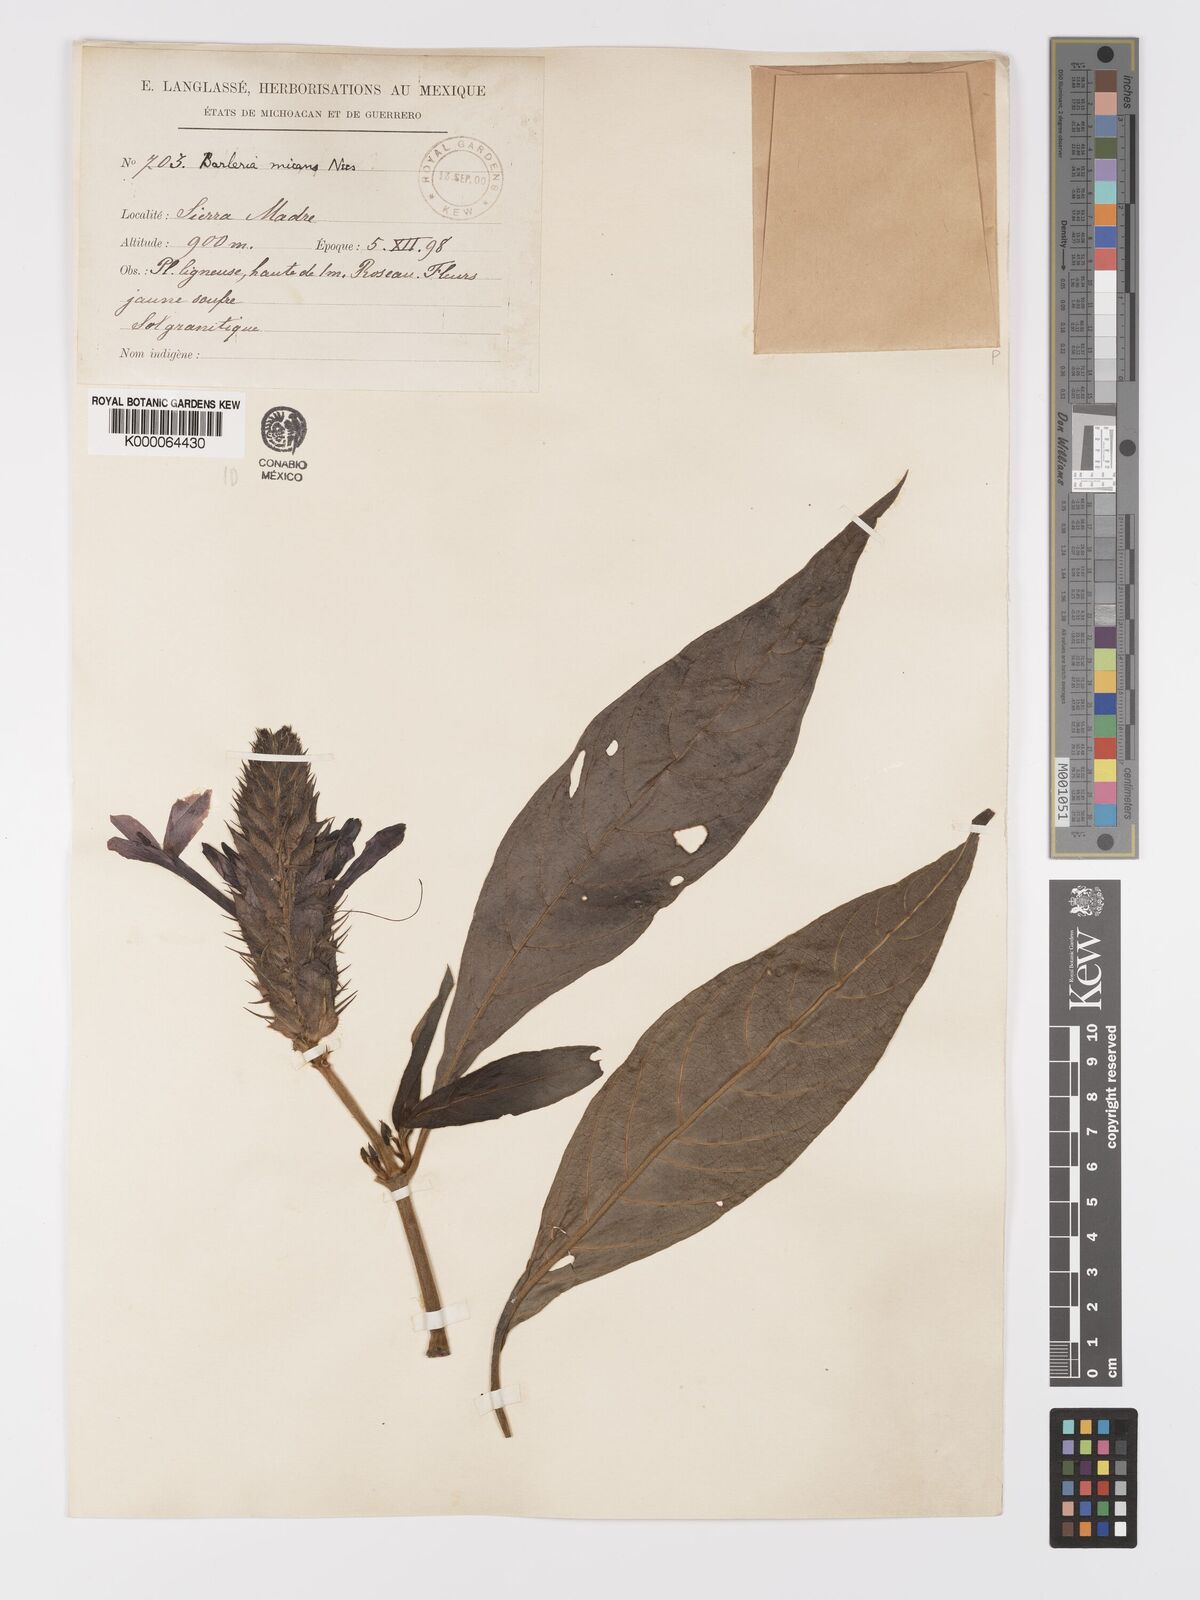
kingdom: Plantae
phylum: Tracheophyta
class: Magnoliopsida
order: Lamiales
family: Acanthaceae
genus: Barleria
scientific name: Barleria oenotheroides
